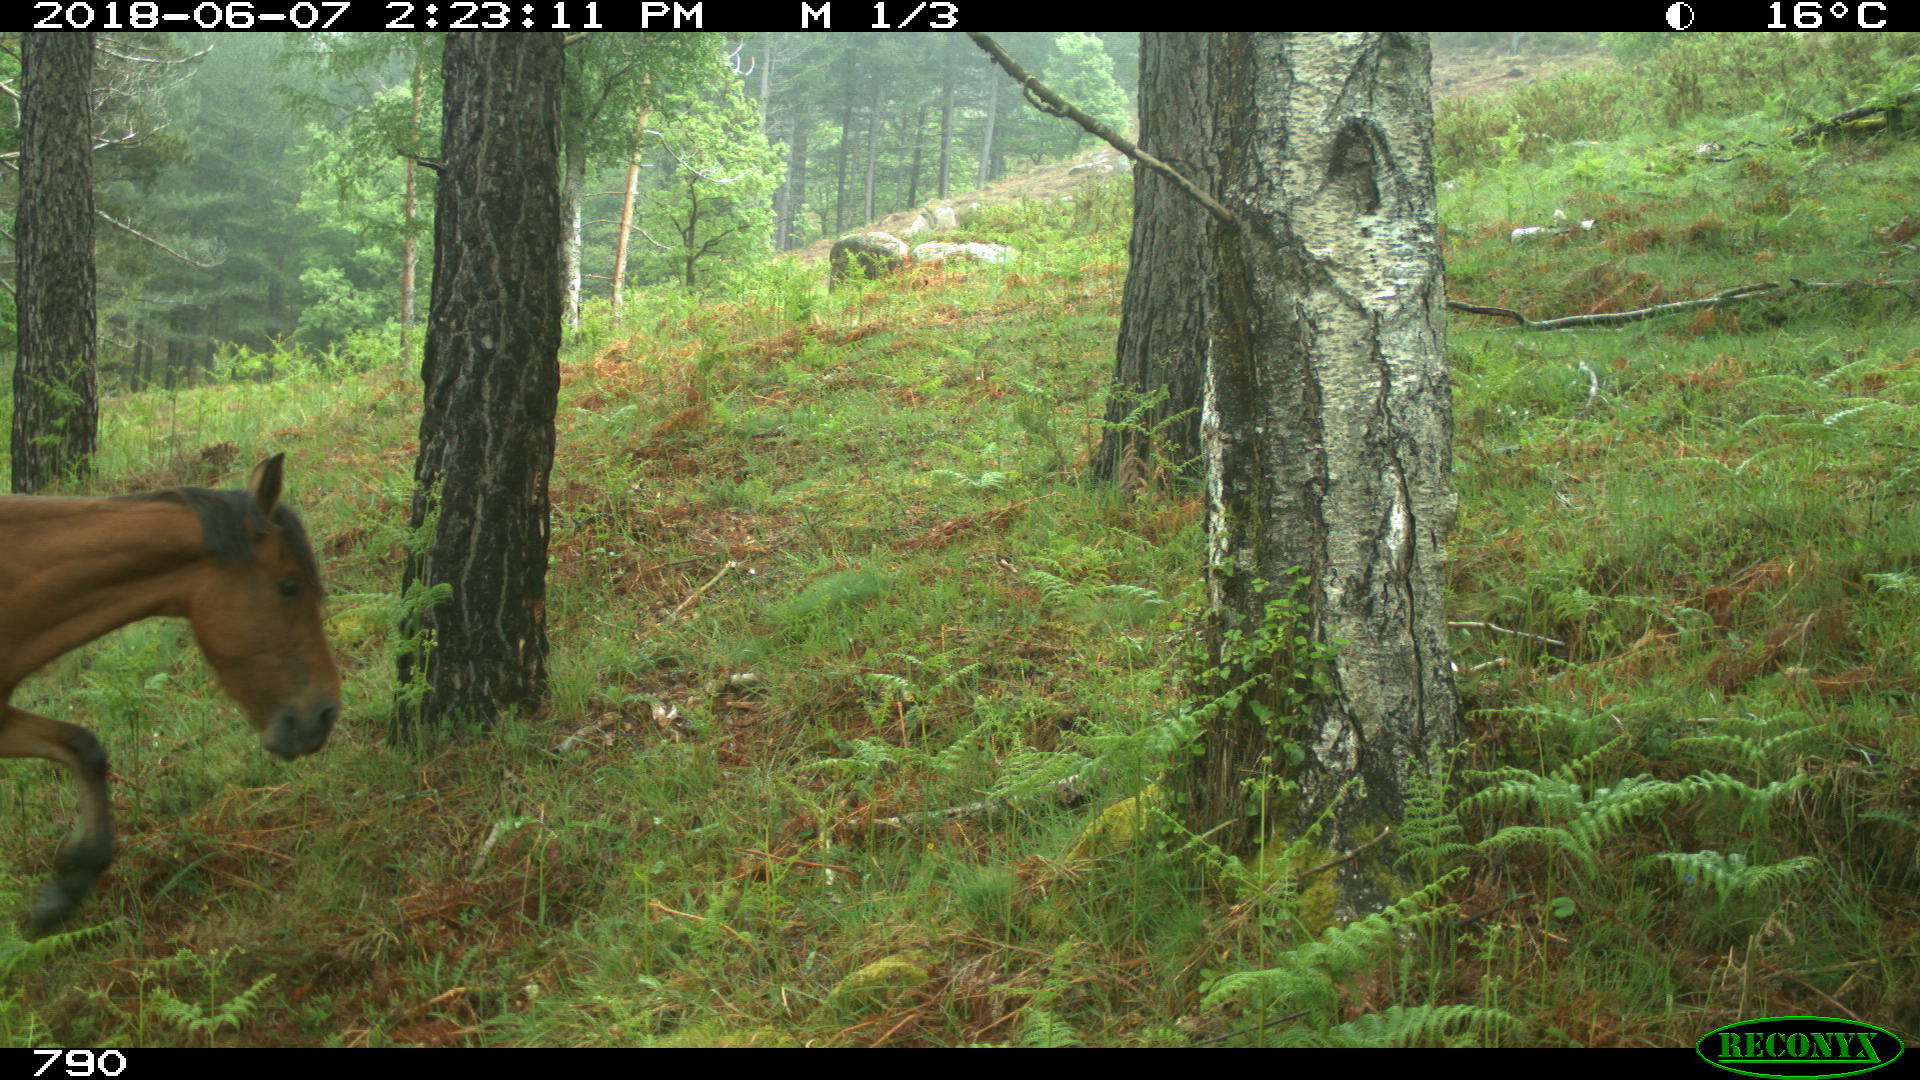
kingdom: Animalia
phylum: Chordata
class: Mammalia
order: Perissodactyla
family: Equidae
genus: Equus
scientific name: Equus caballus
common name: Horse
